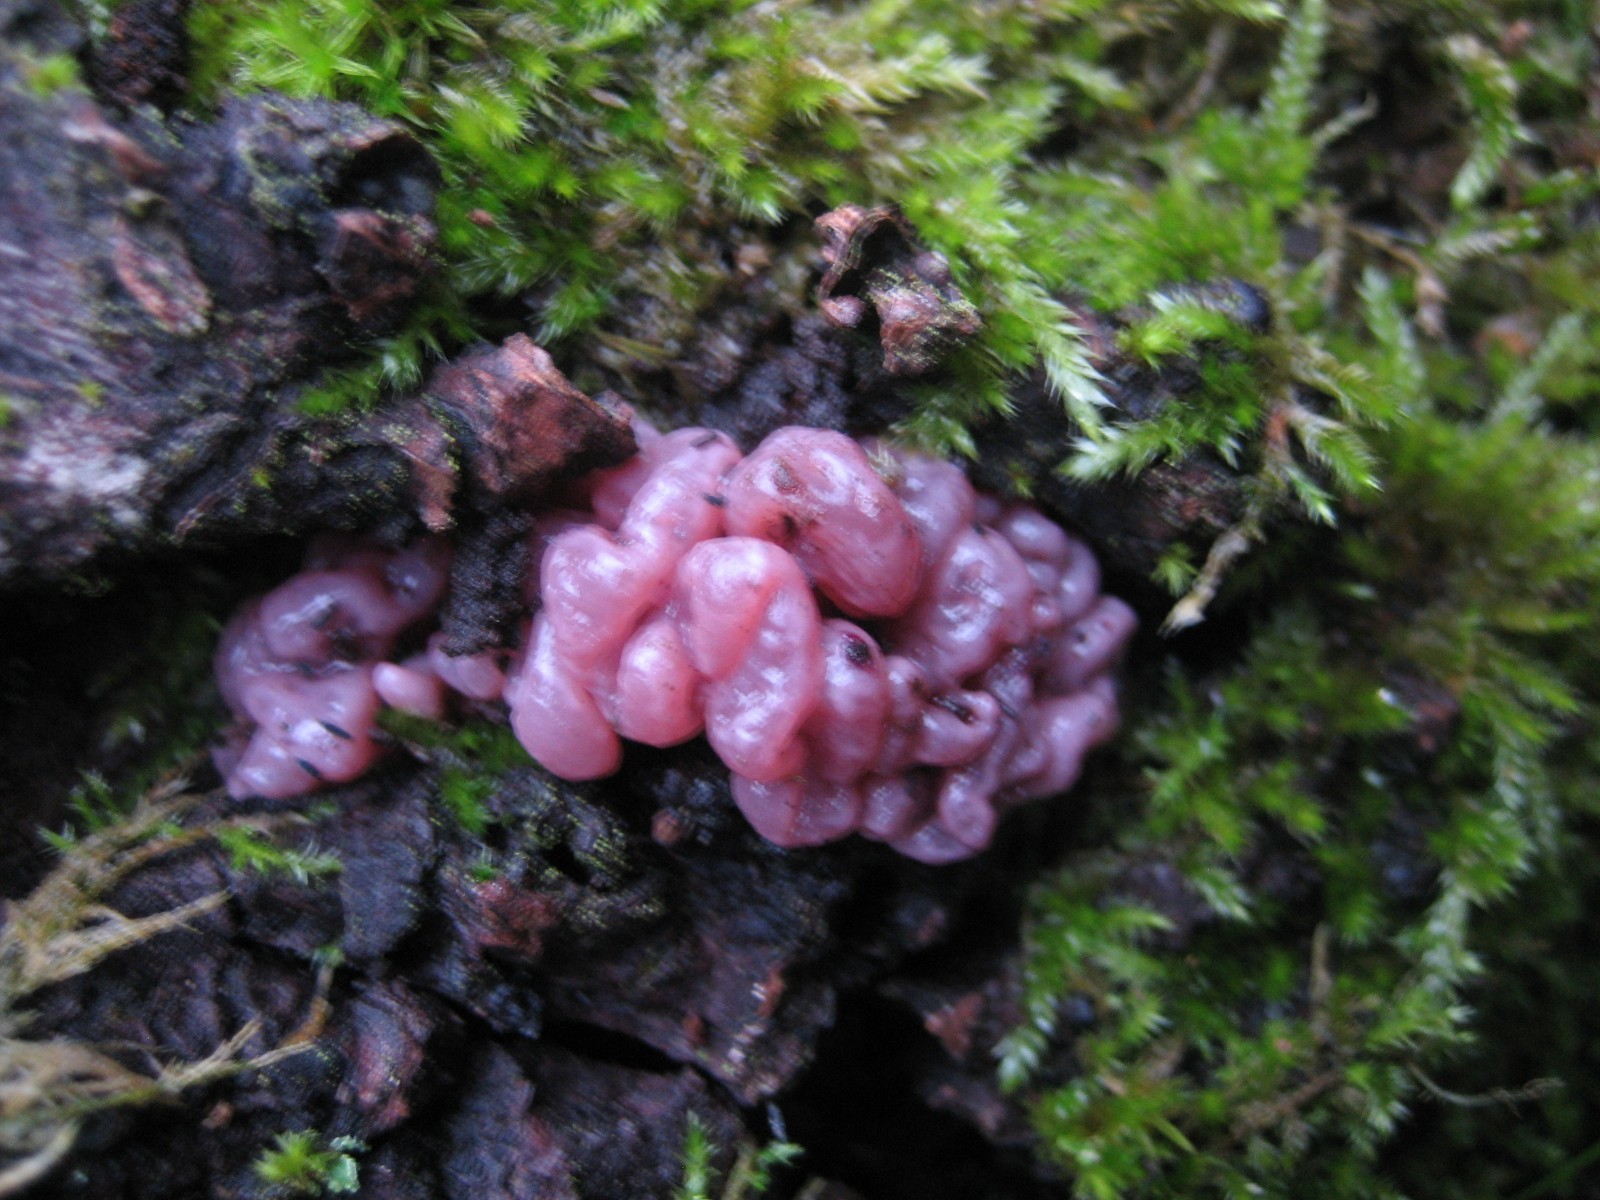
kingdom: Fungi
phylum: Ascomycota
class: Leotiomycetes
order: Helotiales
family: Gelatinodiscaceae
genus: Ascocoryne
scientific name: Ascocoryne sarcoides
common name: rødlilla sejskive
